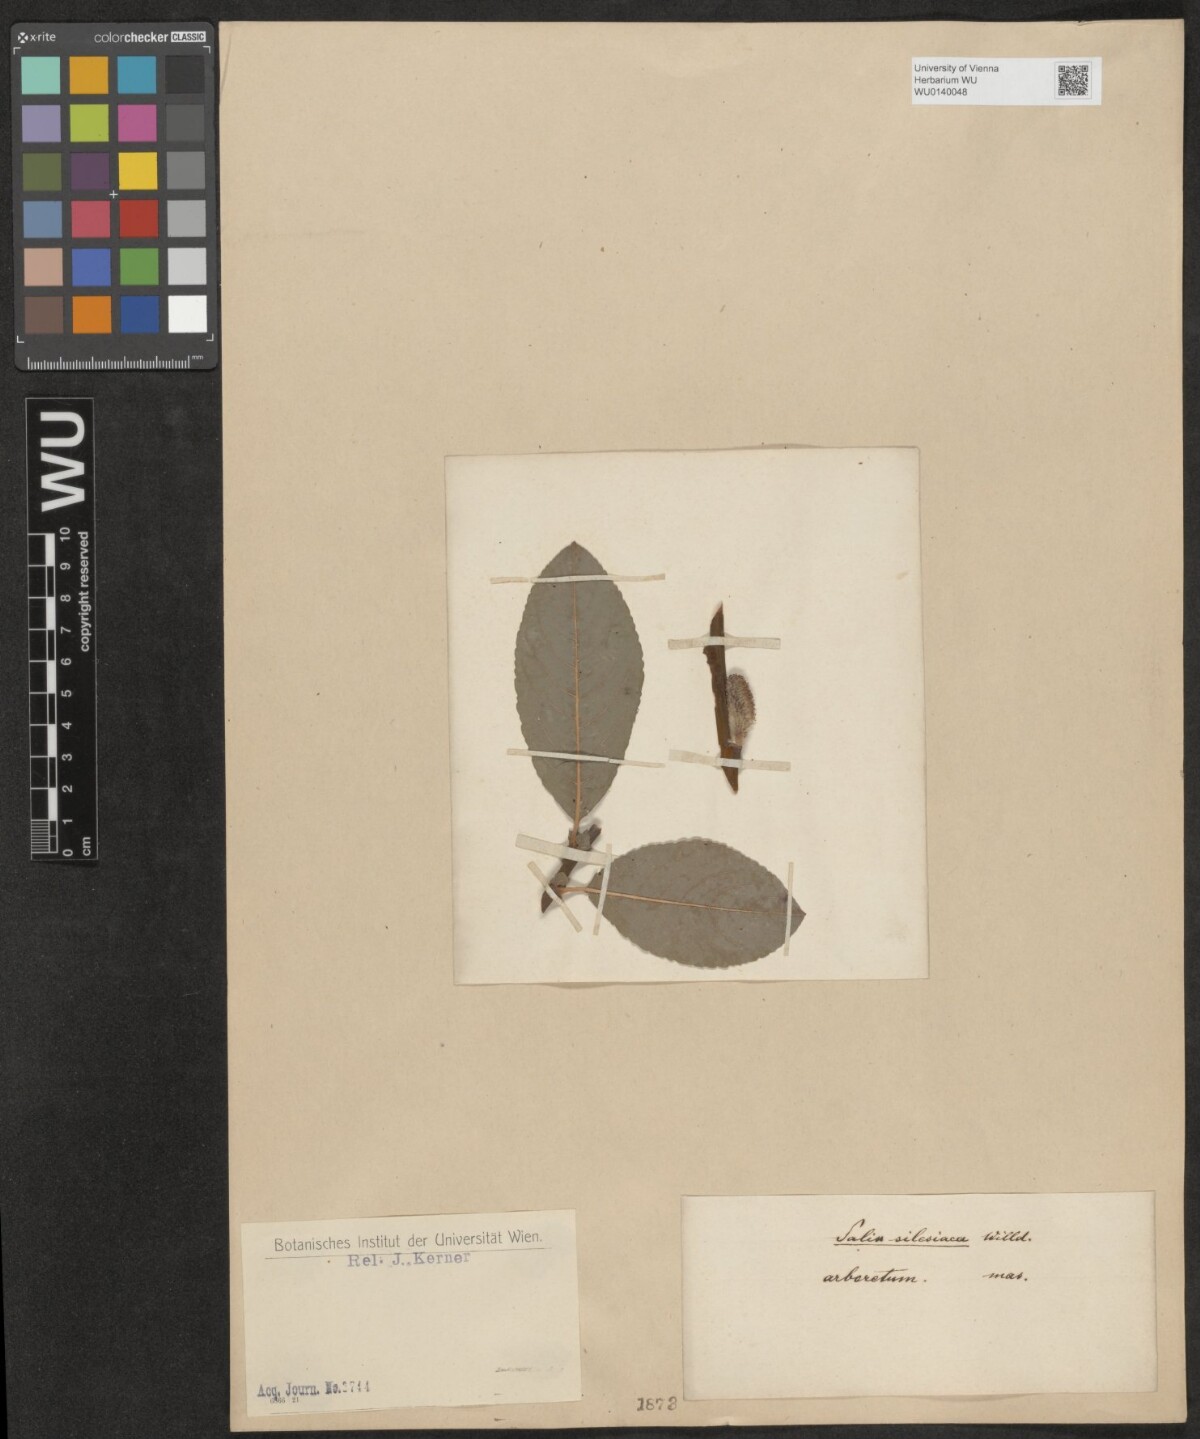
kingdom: Plantae
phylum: Tracheophyta
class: Magnoliopsida
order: Malpighiales
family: Salicaceae
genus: Salix
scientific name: Salix silesiaca
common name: Silesian willow
